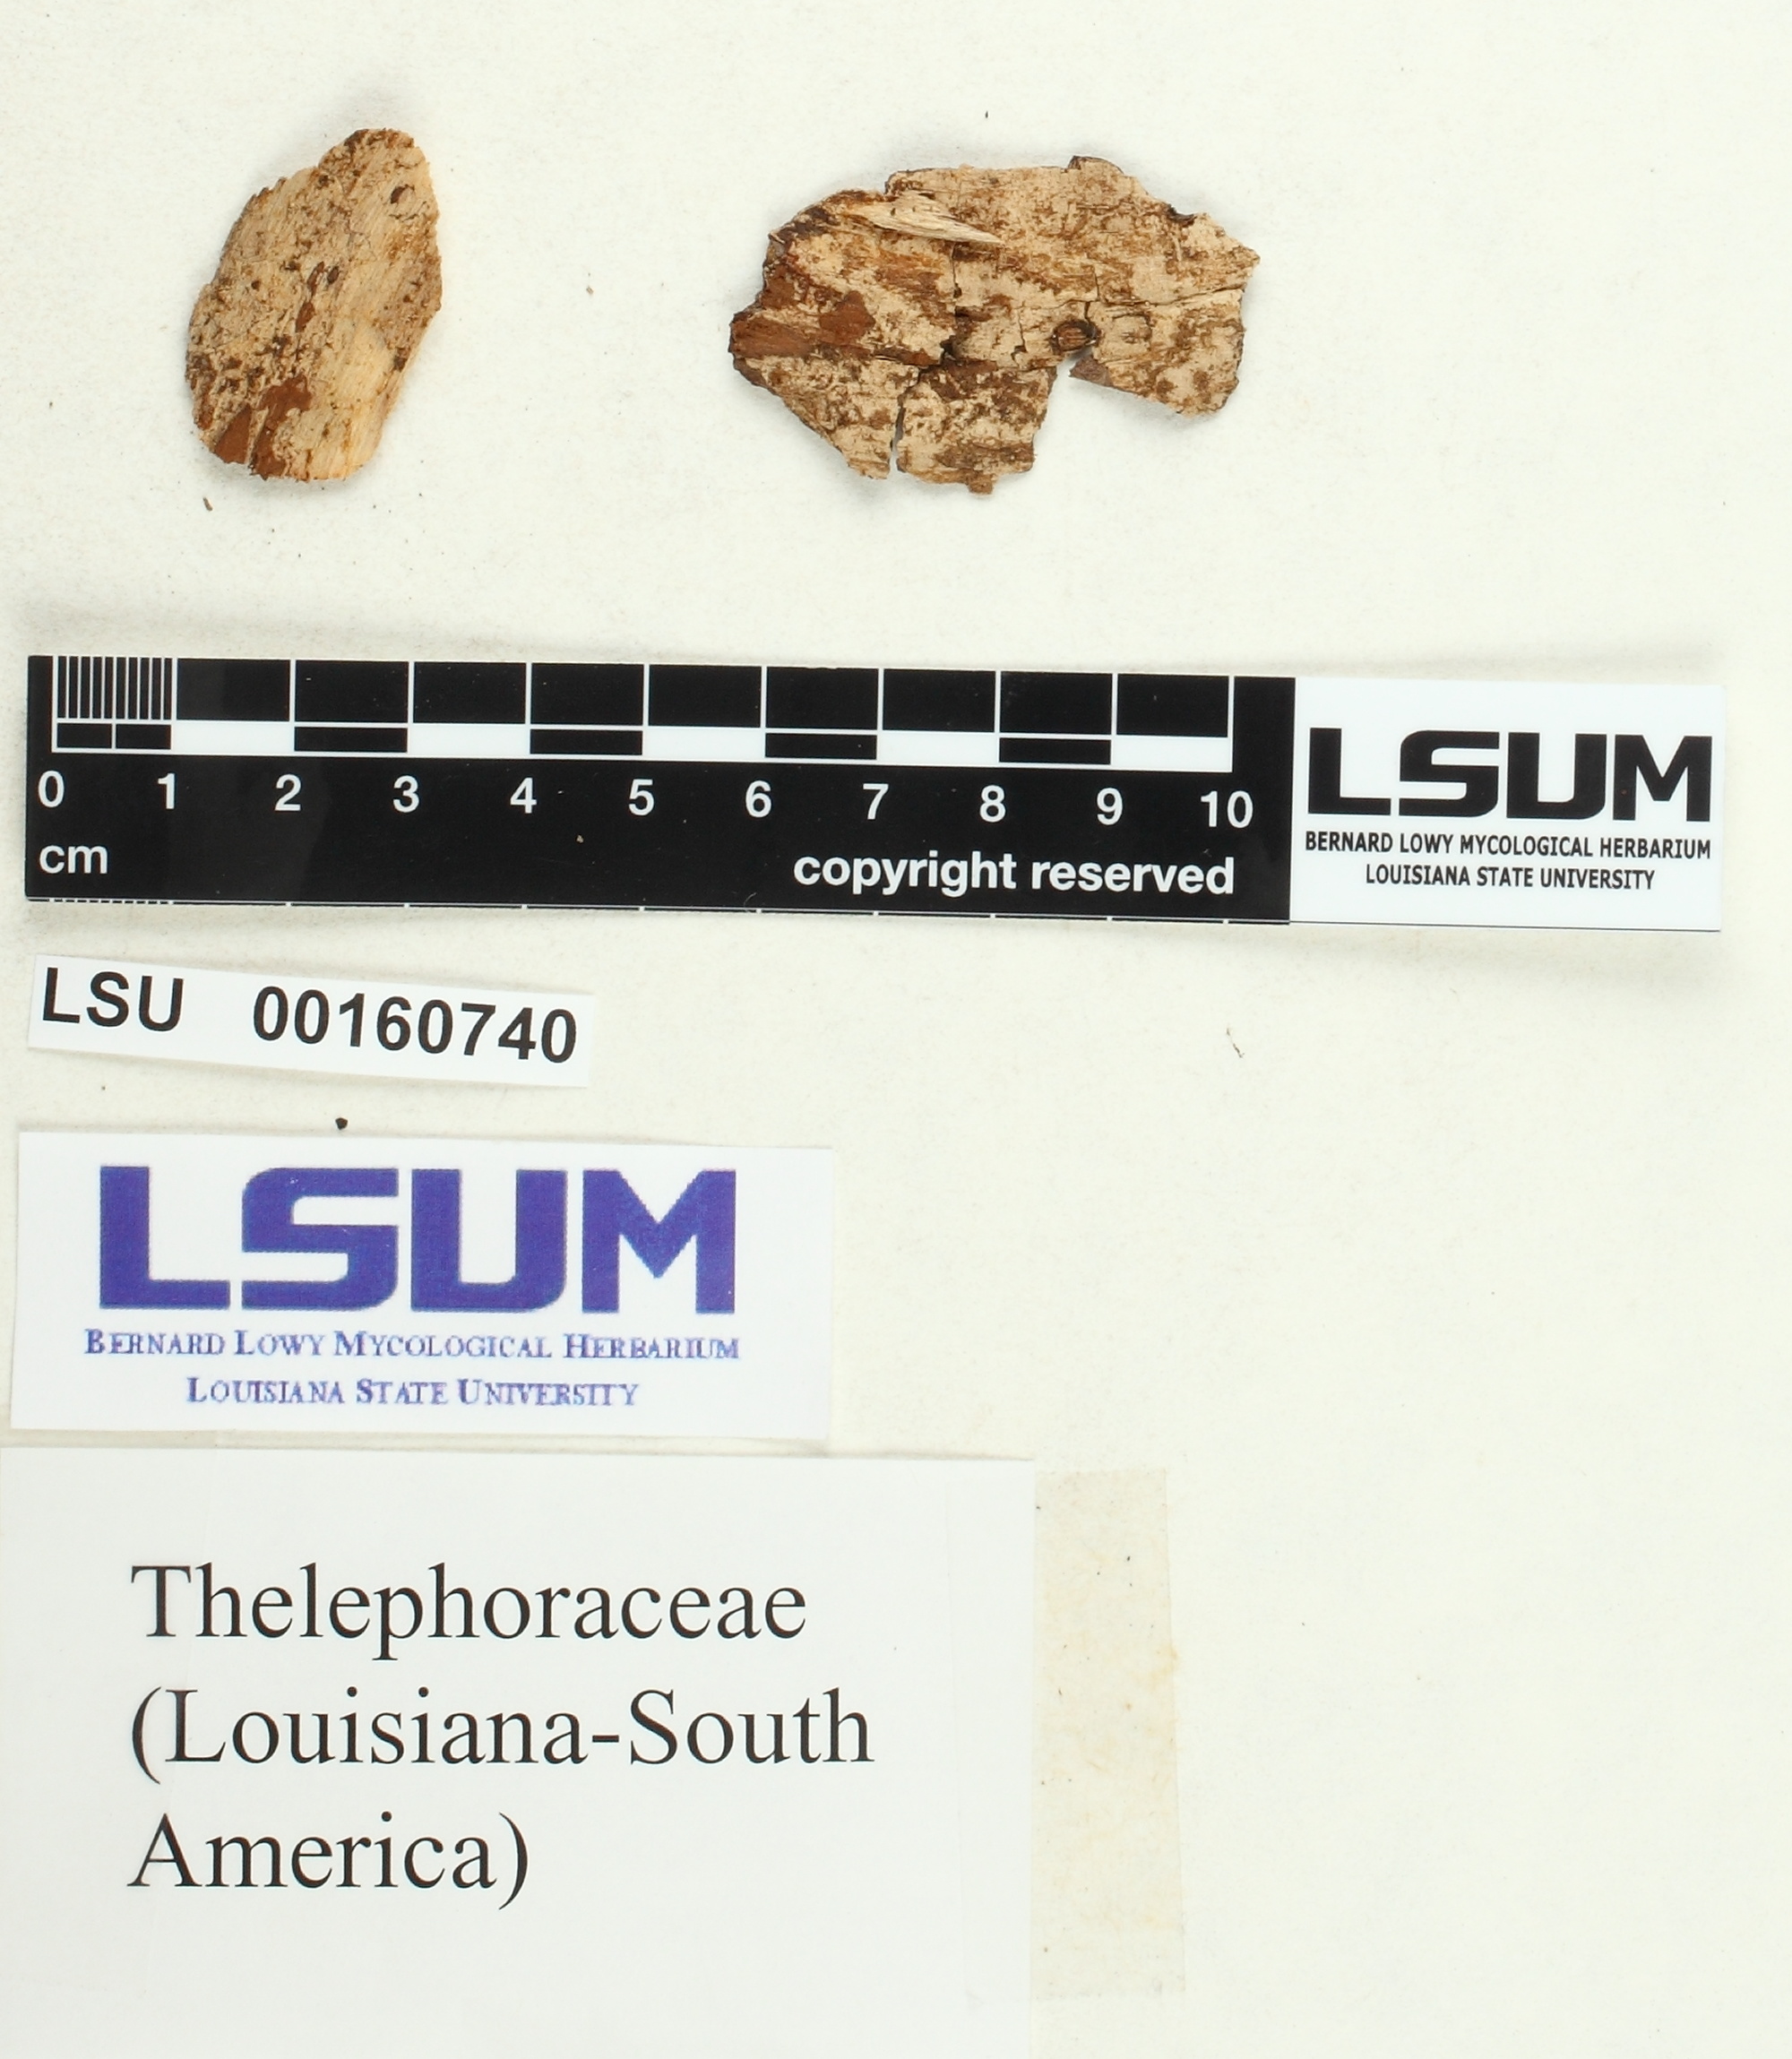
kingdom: Fungi
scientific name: Fungi
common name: Fungi
